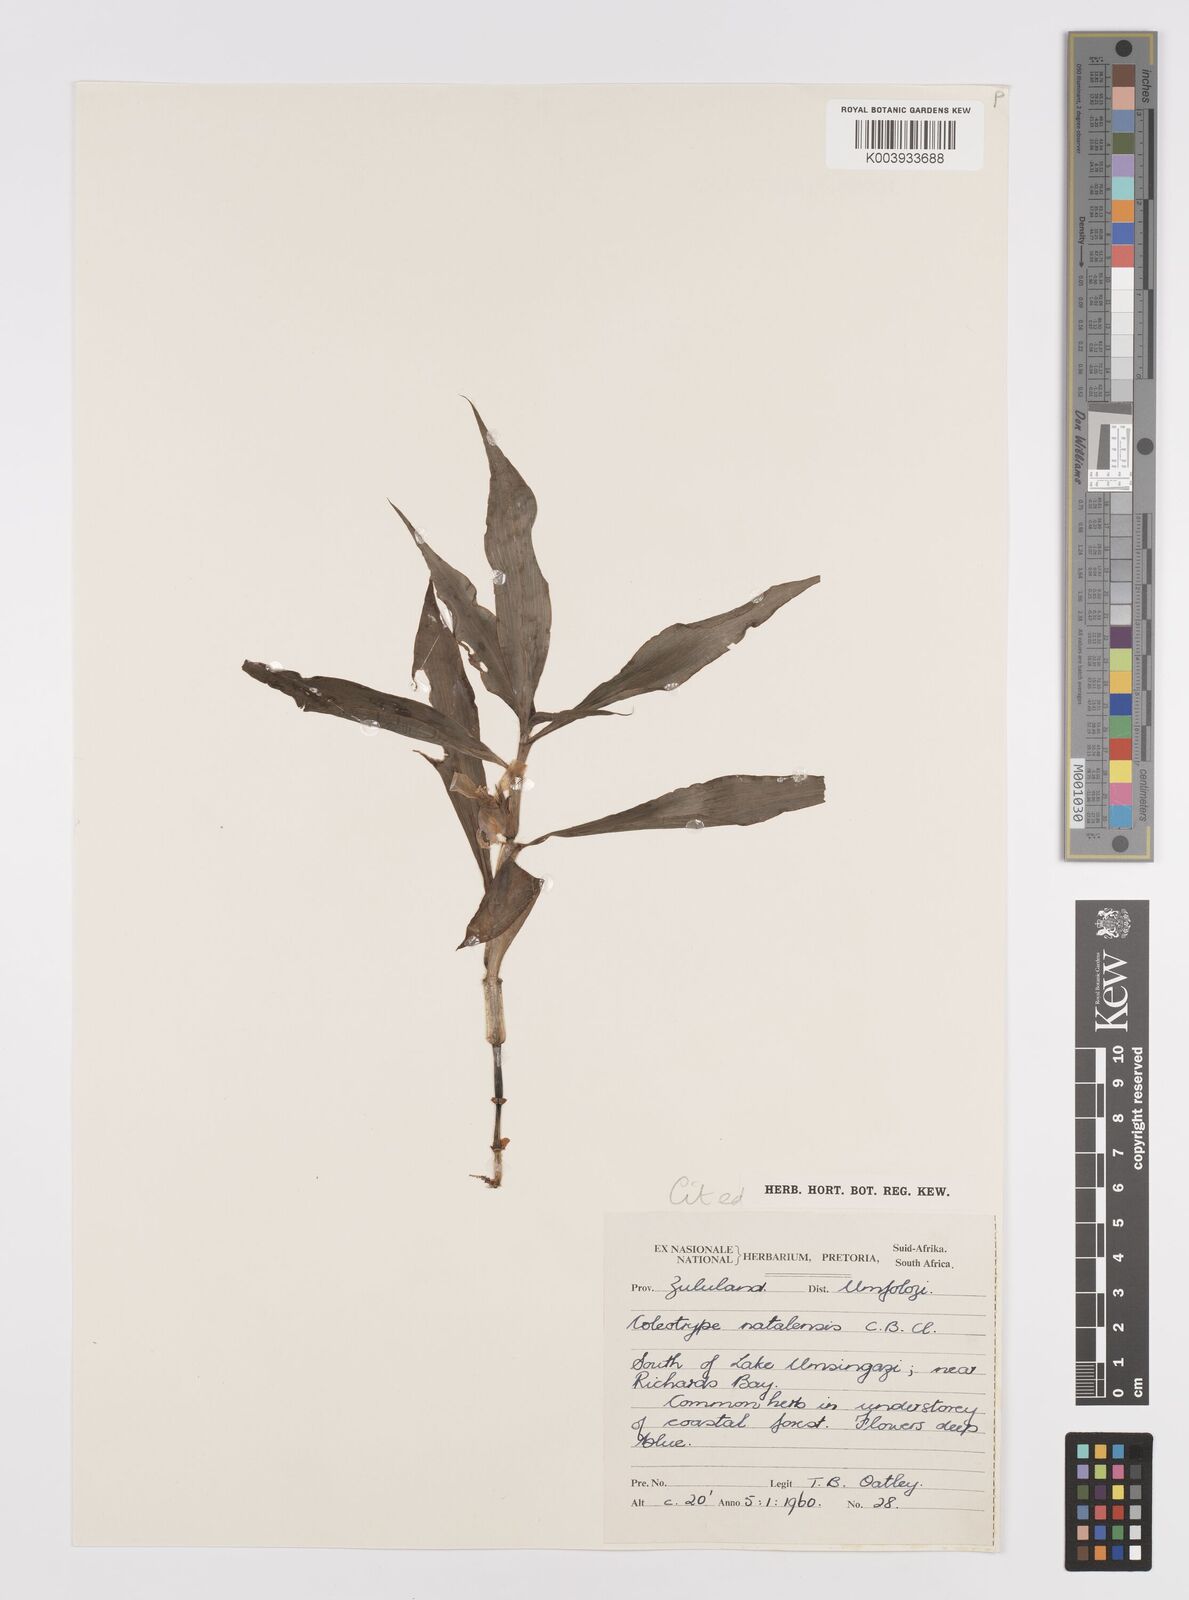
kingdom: Plantae
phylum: Tracheophyta
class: Liliopsida
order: Commelinales
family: Commelinaceae
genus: Coleotrype
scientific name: Coleotrype natalensis
